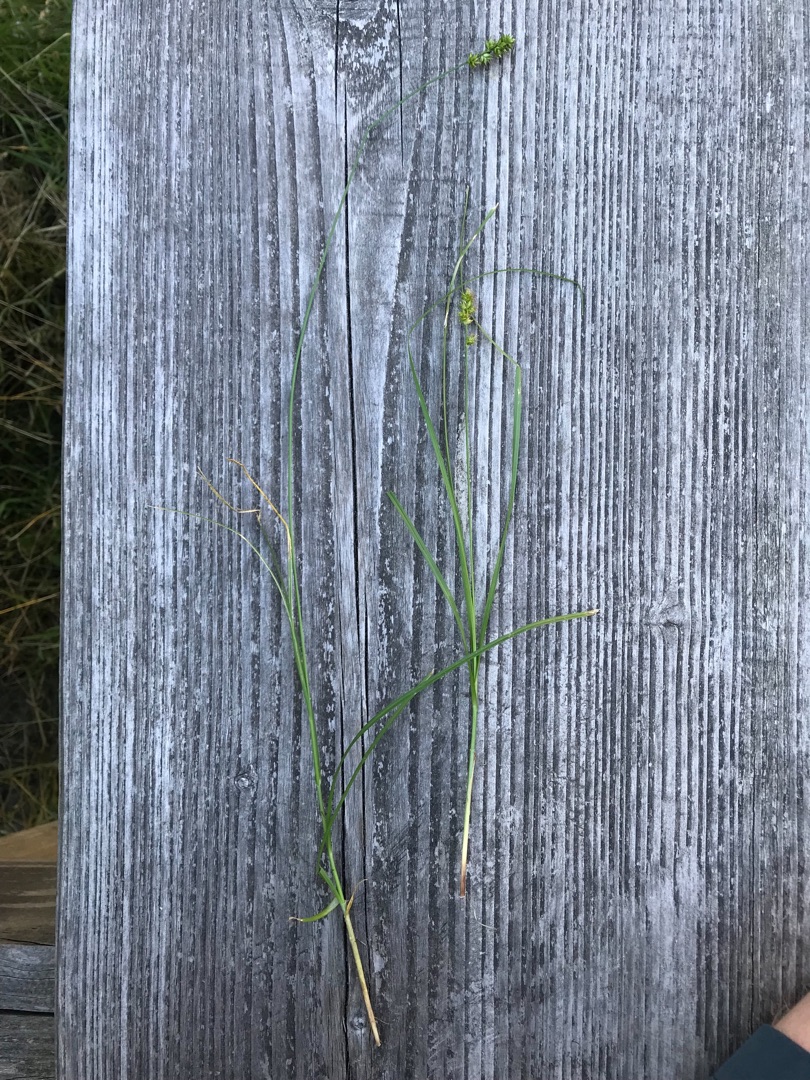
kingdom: Plantae
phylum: Tracheophyta
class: Liliopsida
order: Poales
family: Cyperaceae
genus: Carex
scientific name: Carex pairae
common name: Pigget star
